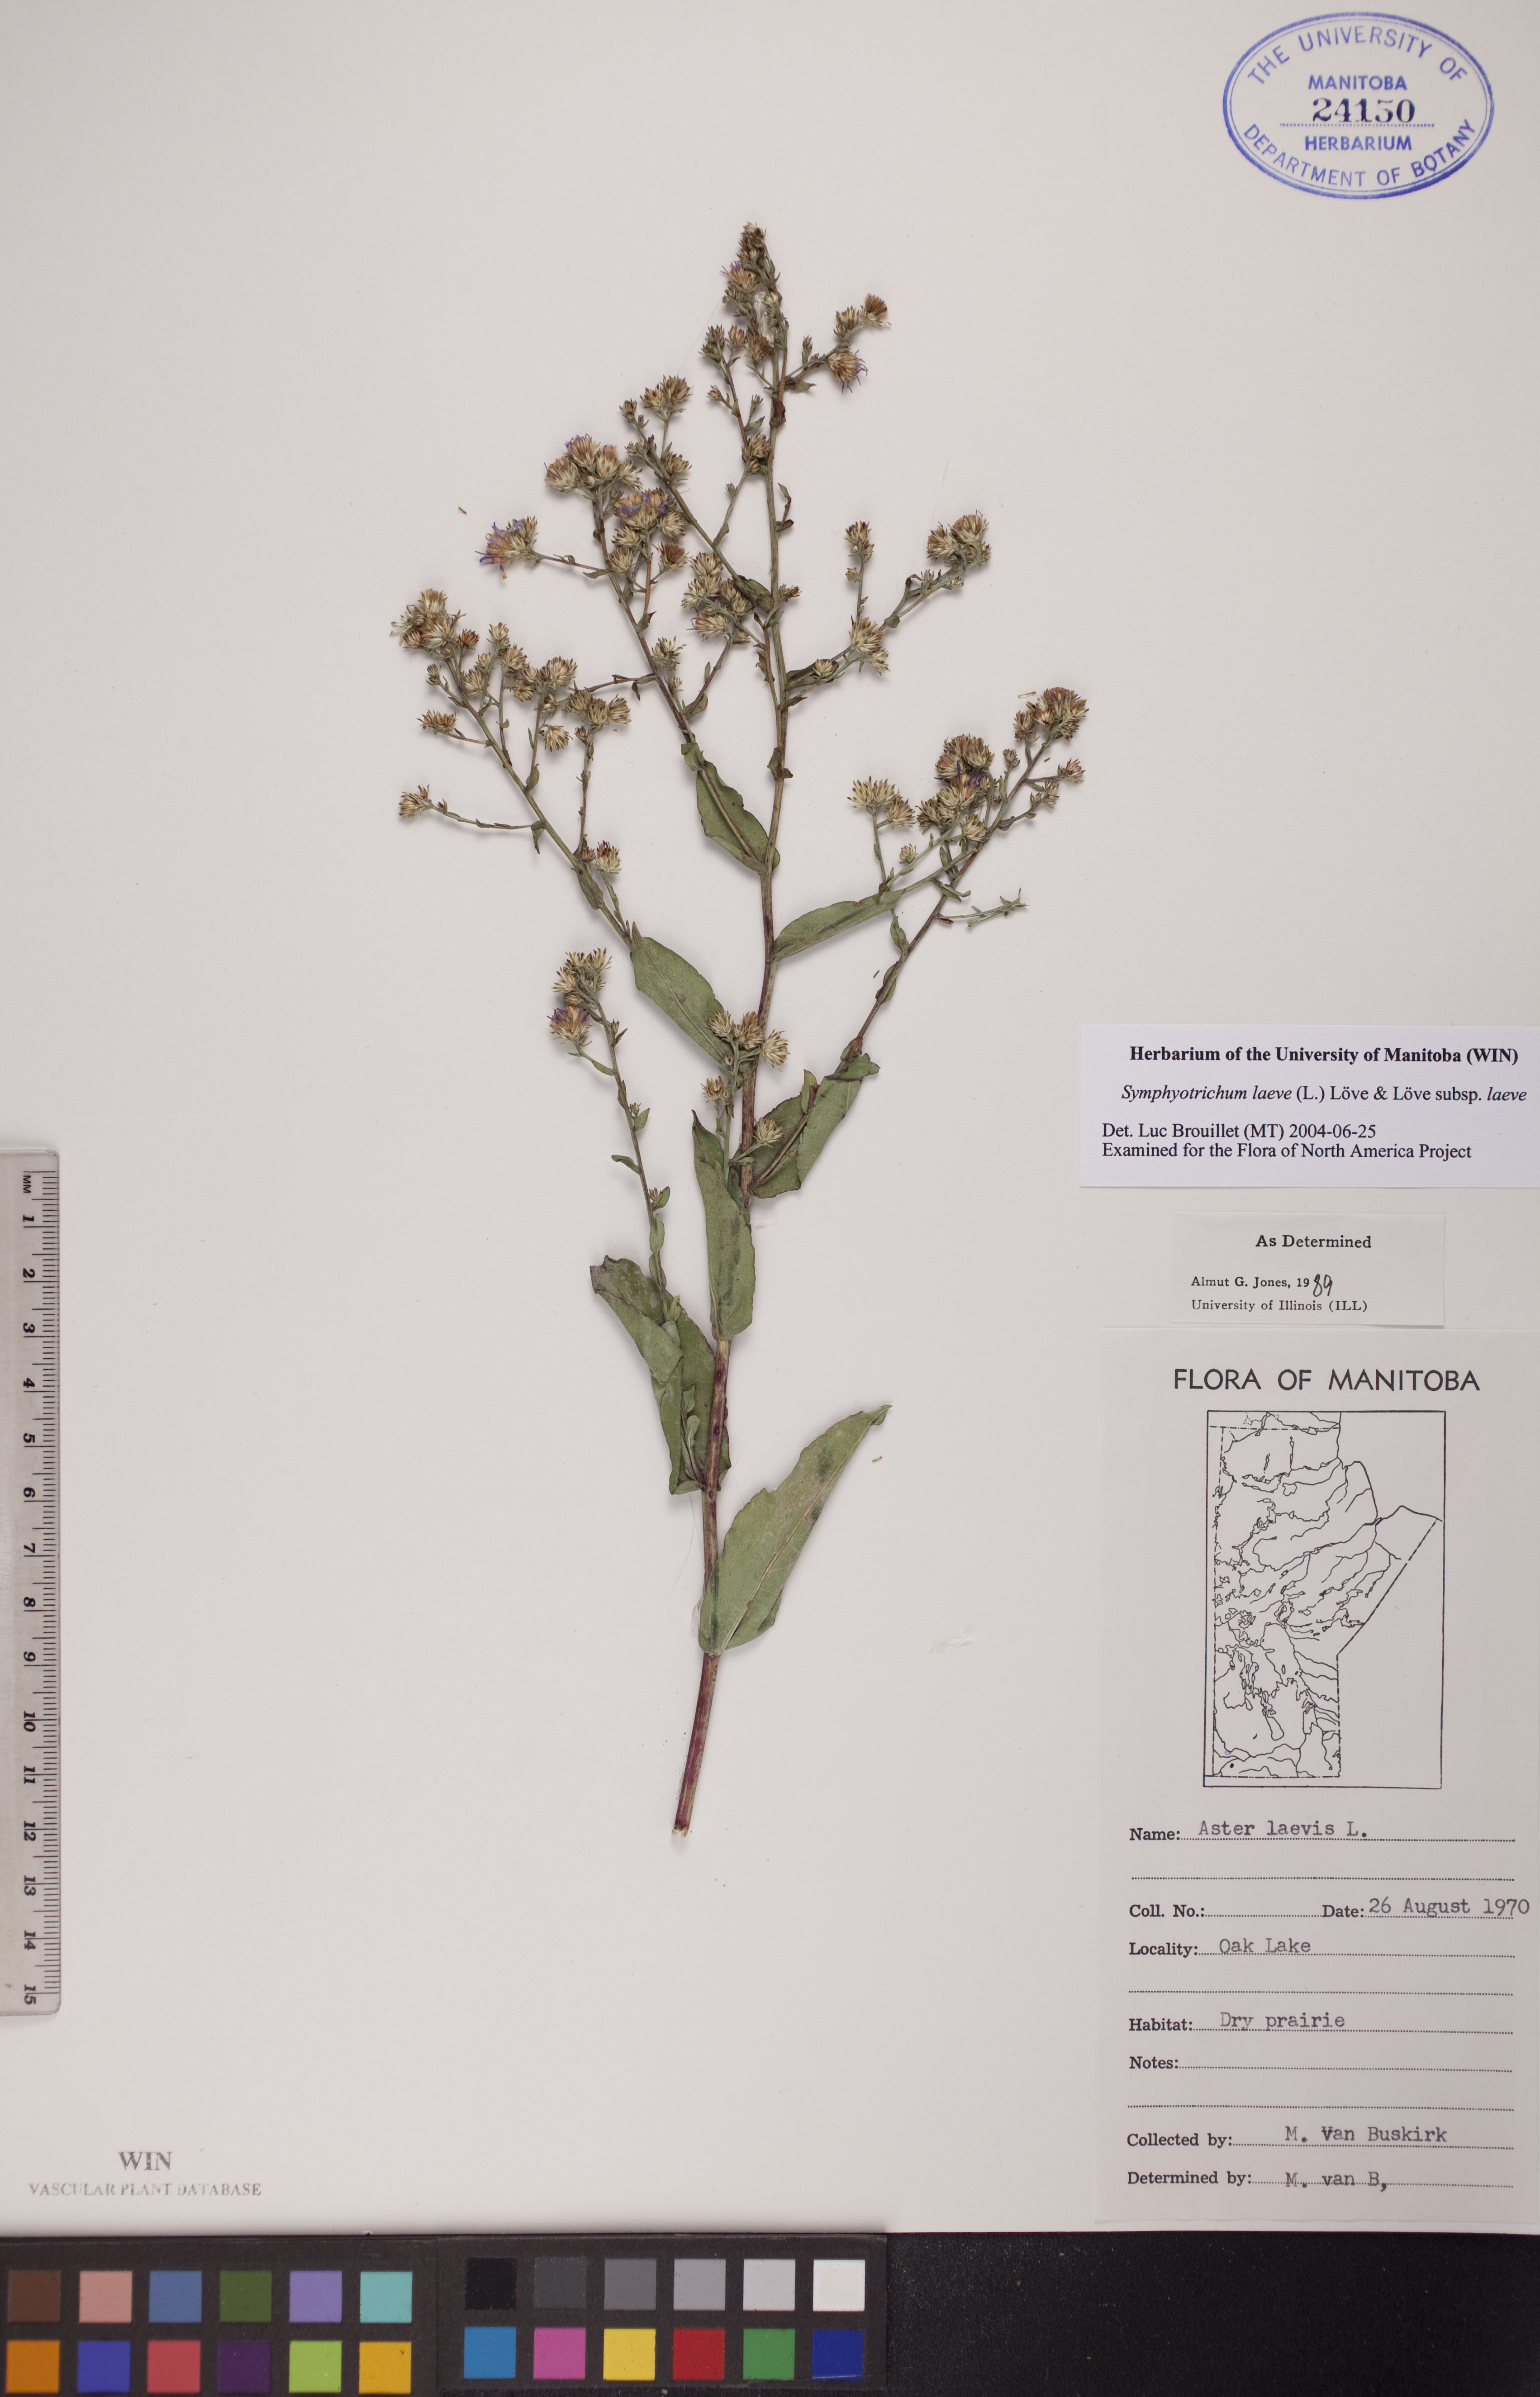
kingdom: Plantae
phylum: Tracheophyta
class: Magnoliopsida
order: Asterales
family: Asteraceae
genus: Symphyotrichum
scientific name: Symphyotrichum laeve
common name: Glaucous aster
